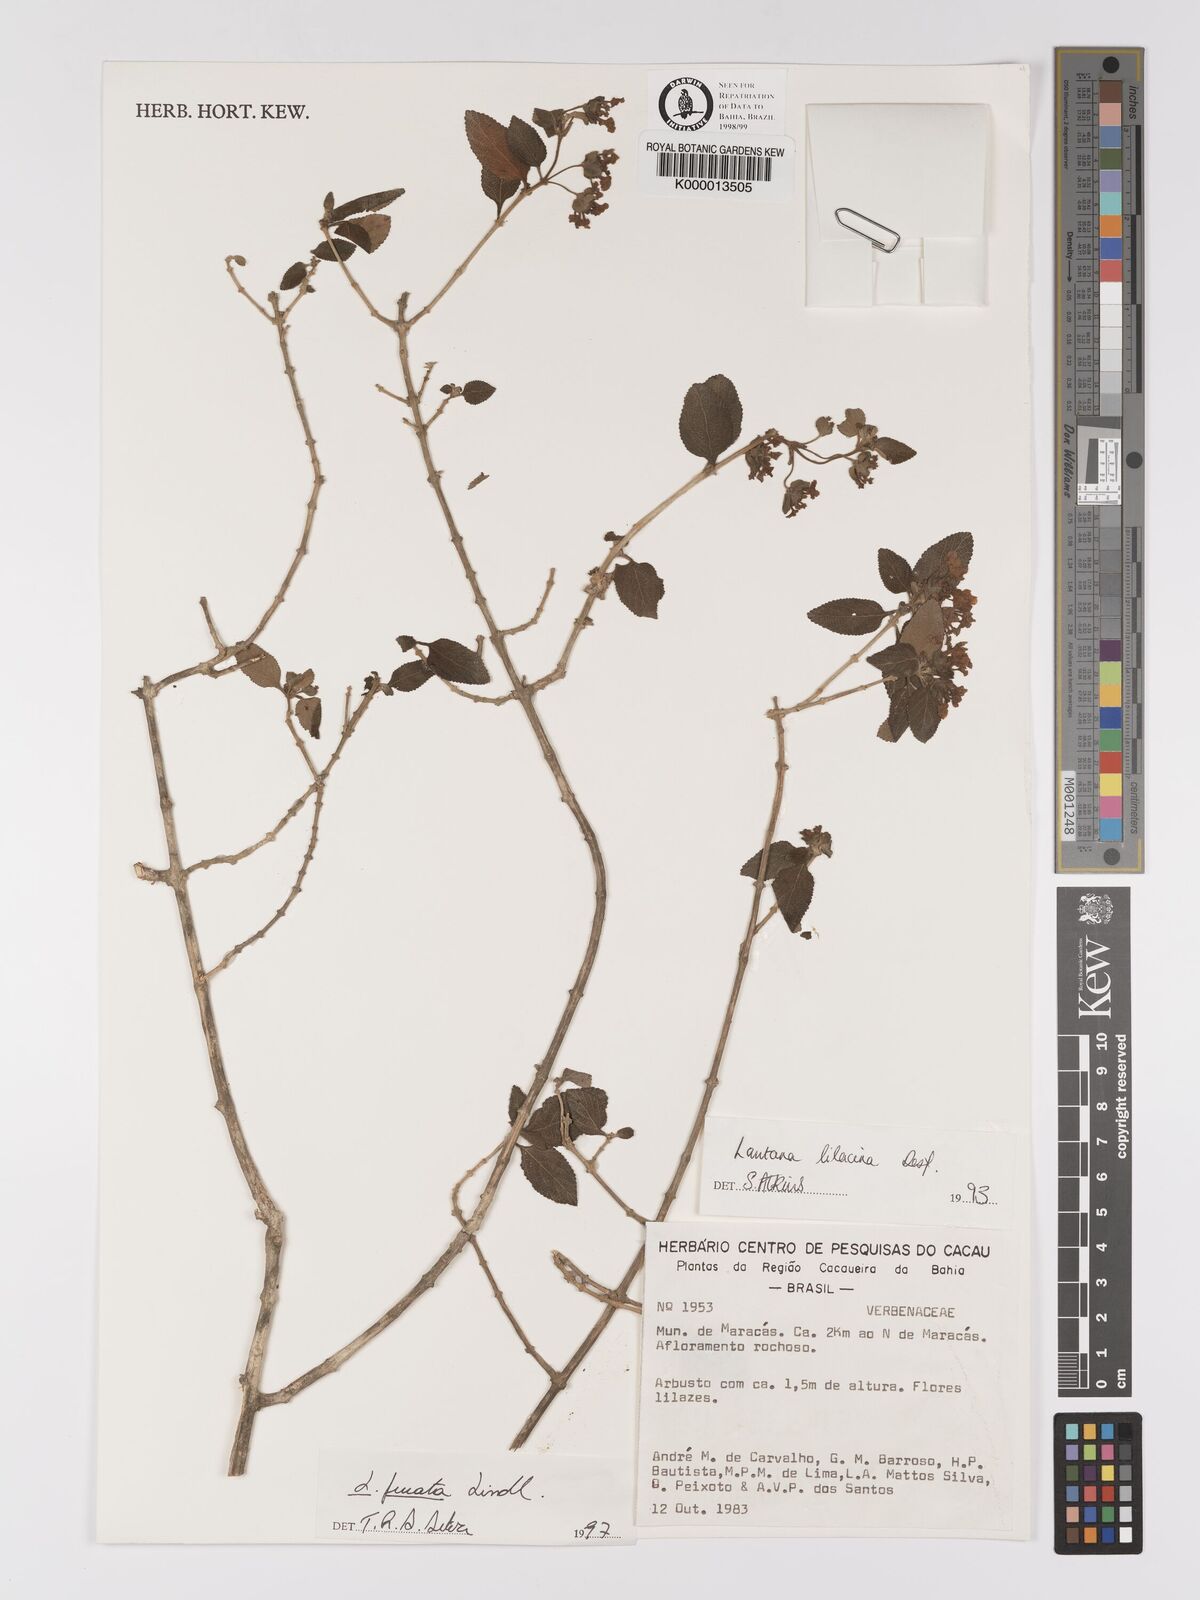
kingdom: Plantae
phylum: Tracheophyta
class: Magnoliopsida
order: Lamiales
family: Verbenaceae
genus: Lantana
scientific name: Lantana fucata
